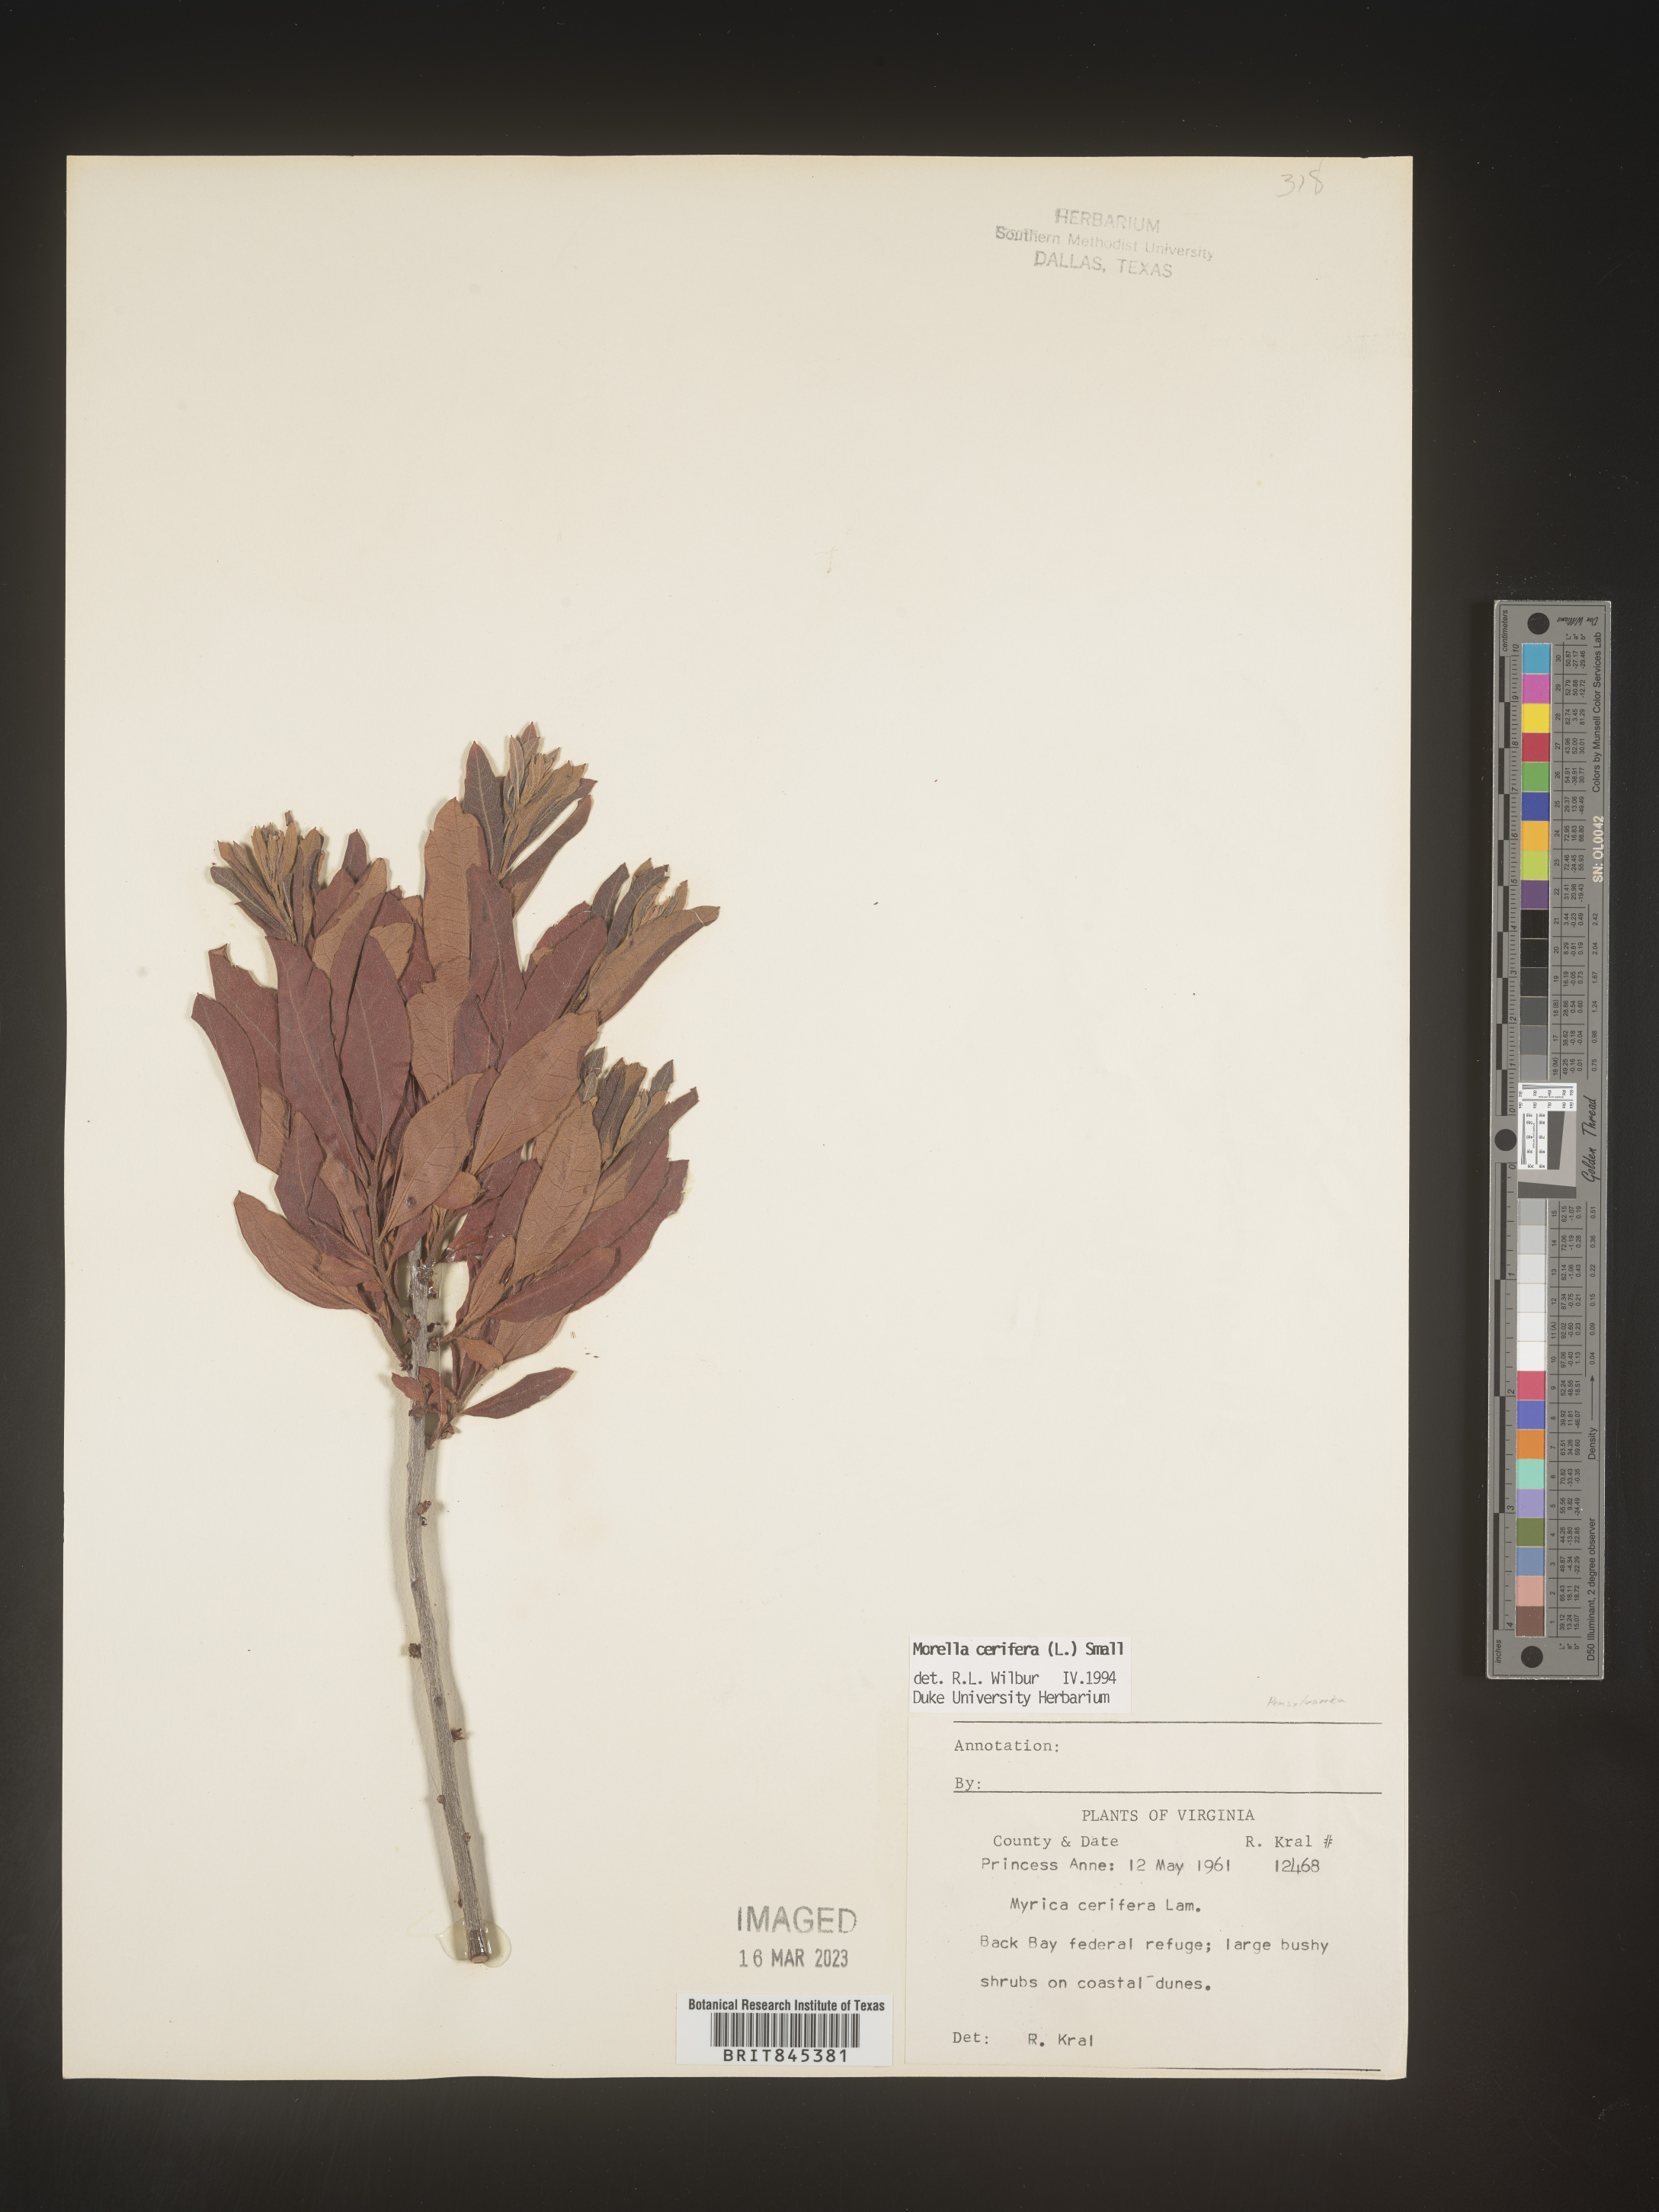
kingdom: Plantae
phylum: Tracheophyta
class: Magnoliopsida
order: Fagales
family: Myricaceae
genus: Morella
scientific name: Morella cerifera
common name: Wax myrtle
